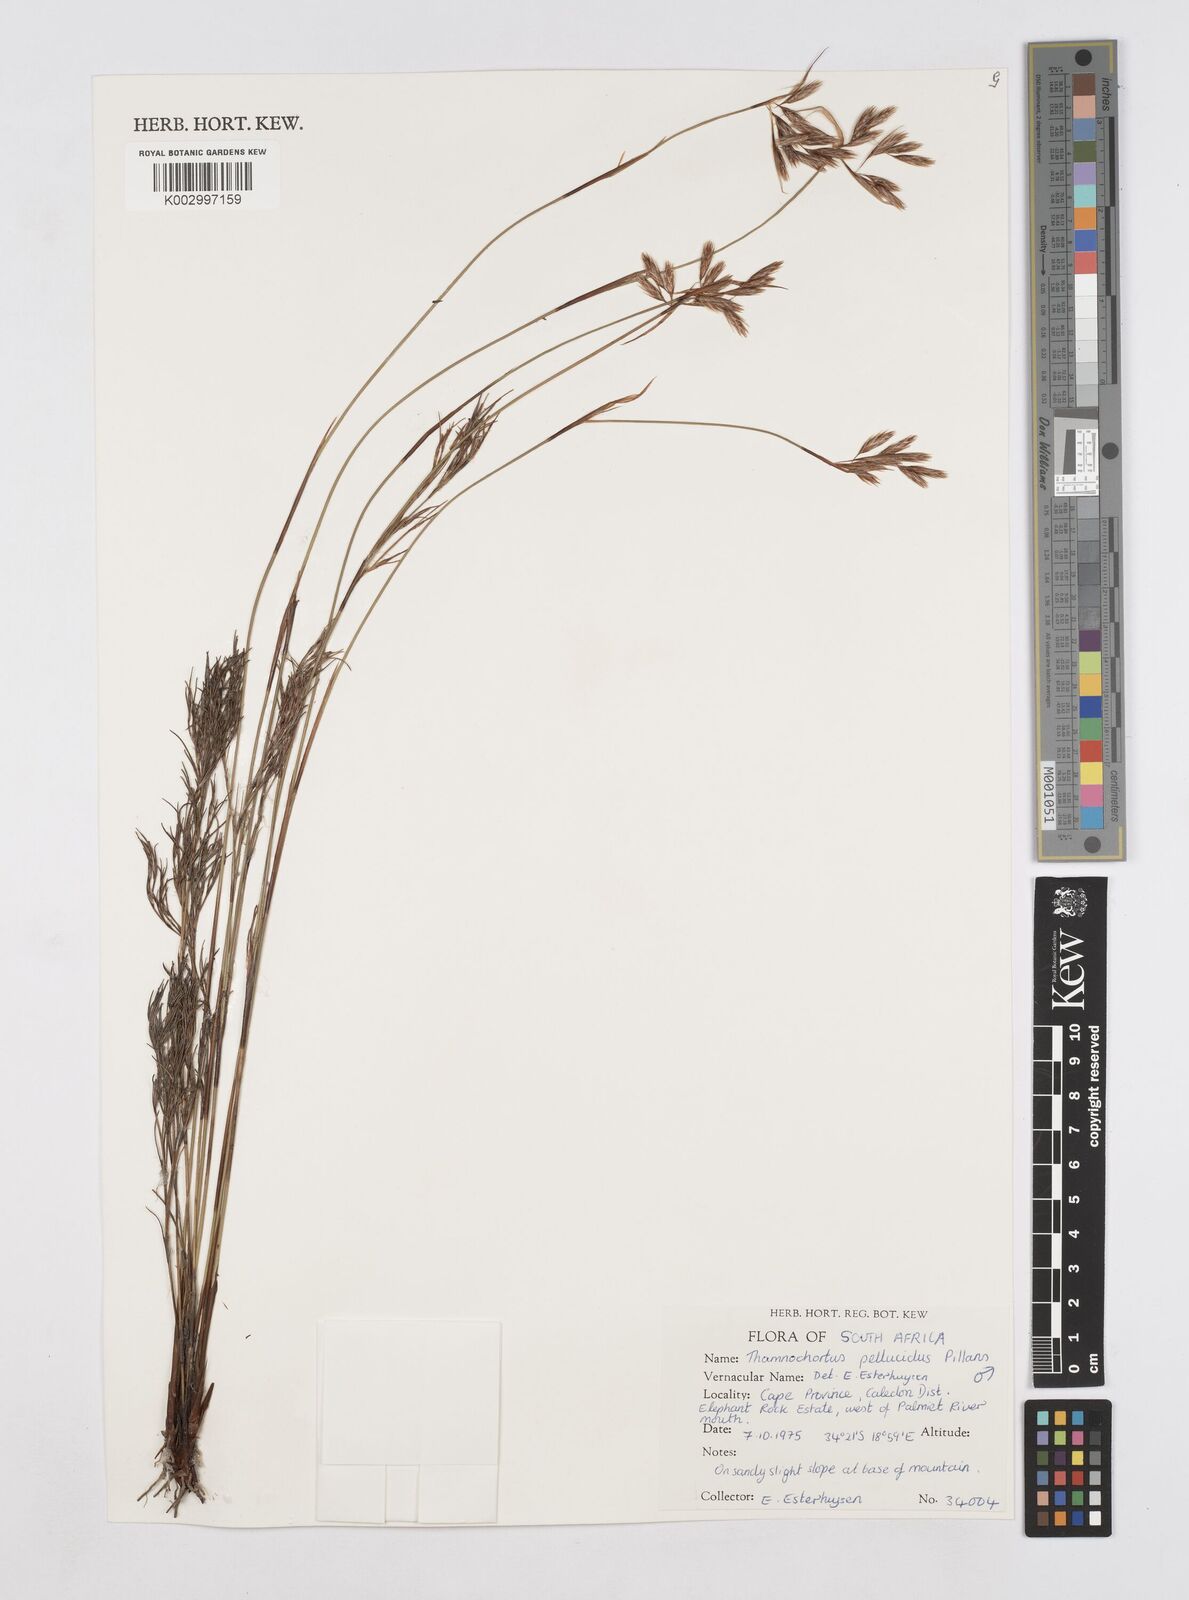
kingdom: Plantae
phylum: Tracheophyta
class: Liliopsida
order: Poales
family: Restionaceae
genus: Thamnochortus
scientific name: Thamnochortus pellucidus
